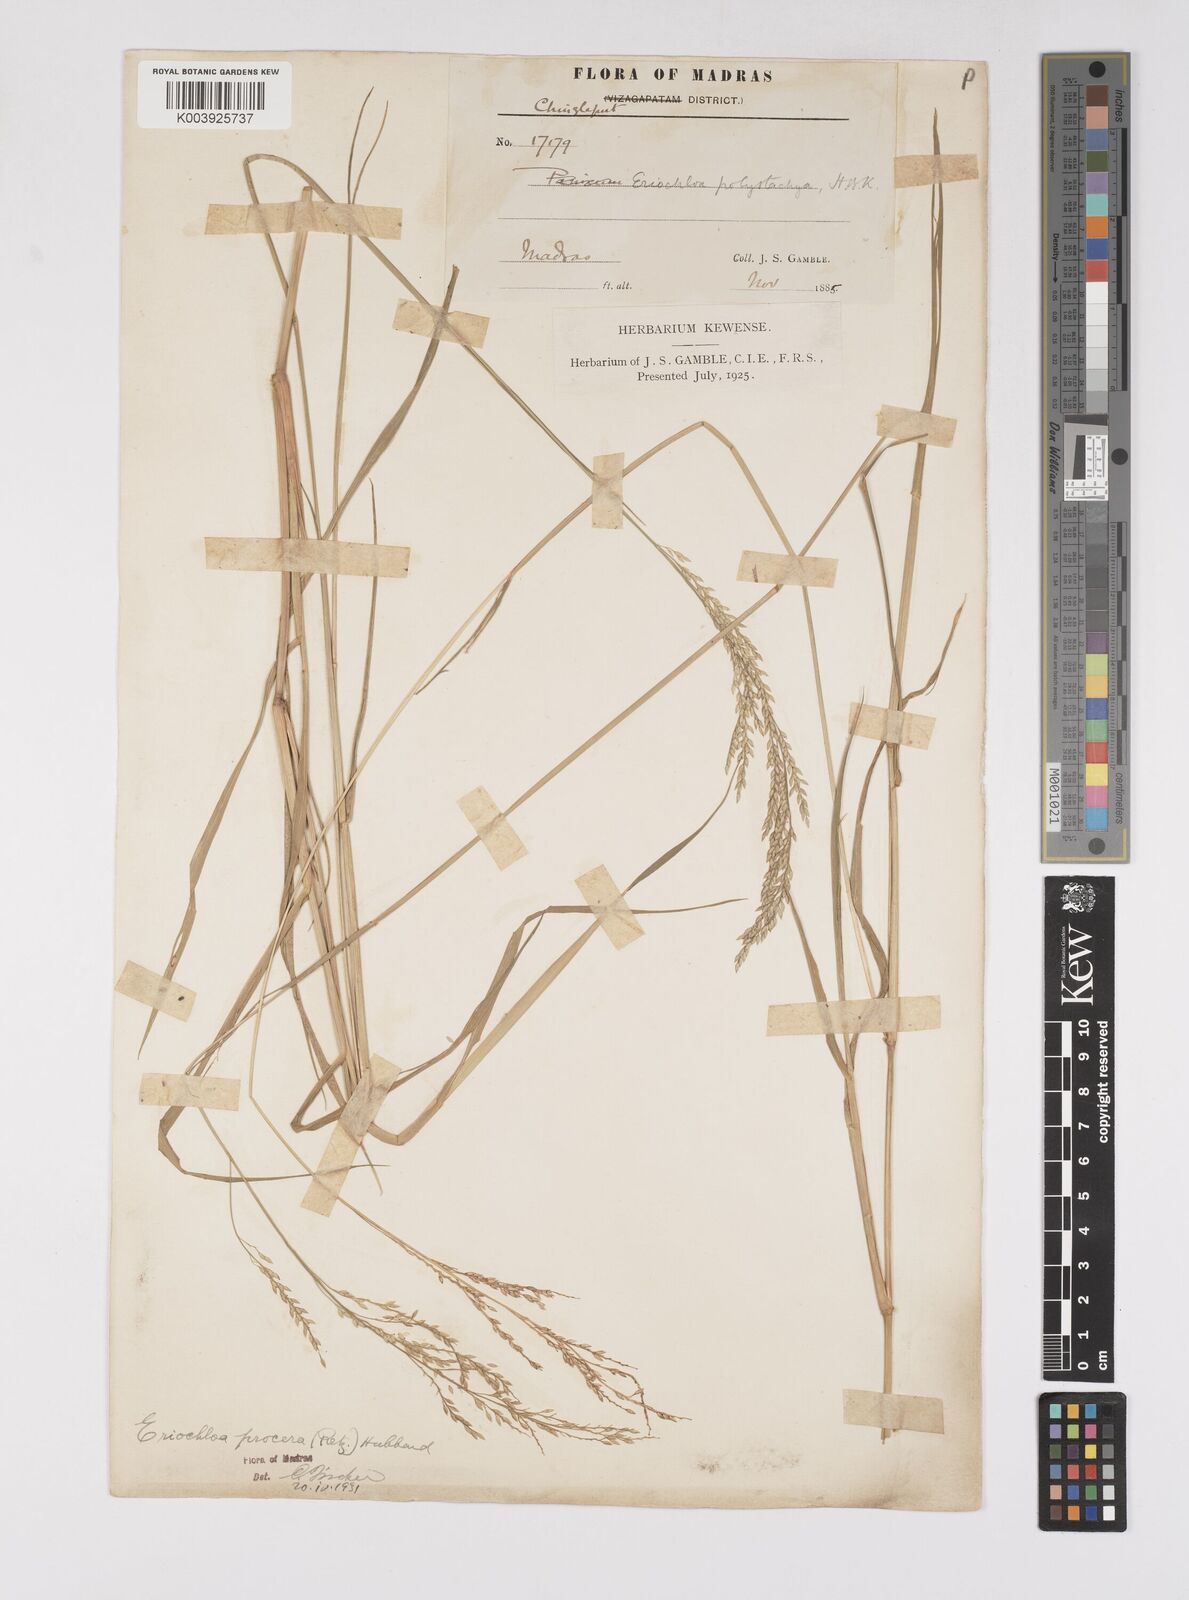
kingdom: Plantae
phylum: Tracheophyta
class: Liliopsida
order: Poales
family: Poaceae
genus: Eriochloa
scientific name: Eriochloa procera
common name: Spring grass
